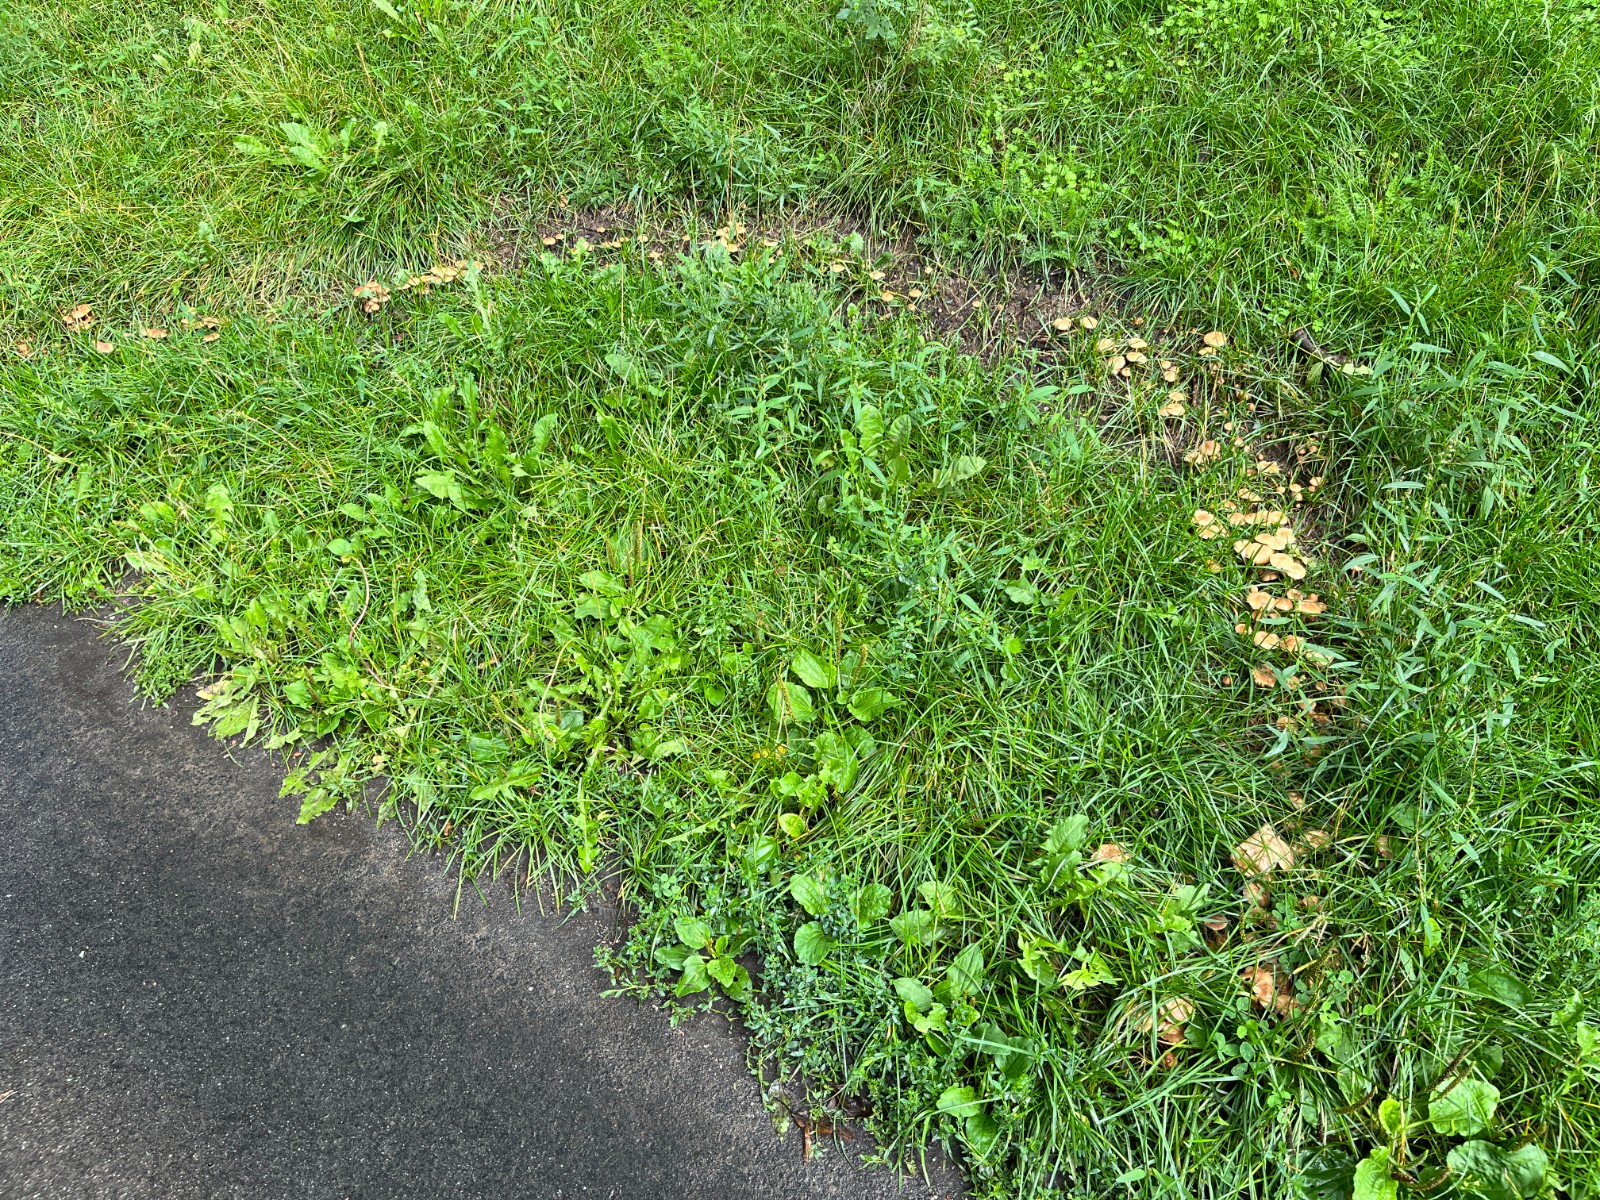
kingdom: Fungi
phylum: Basidiomycota
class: Agaricomycetes
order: Agaricales
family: Marasmiaceae
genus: Marasmius
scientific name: Marasmius oreades
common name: elledans-bruskhat
